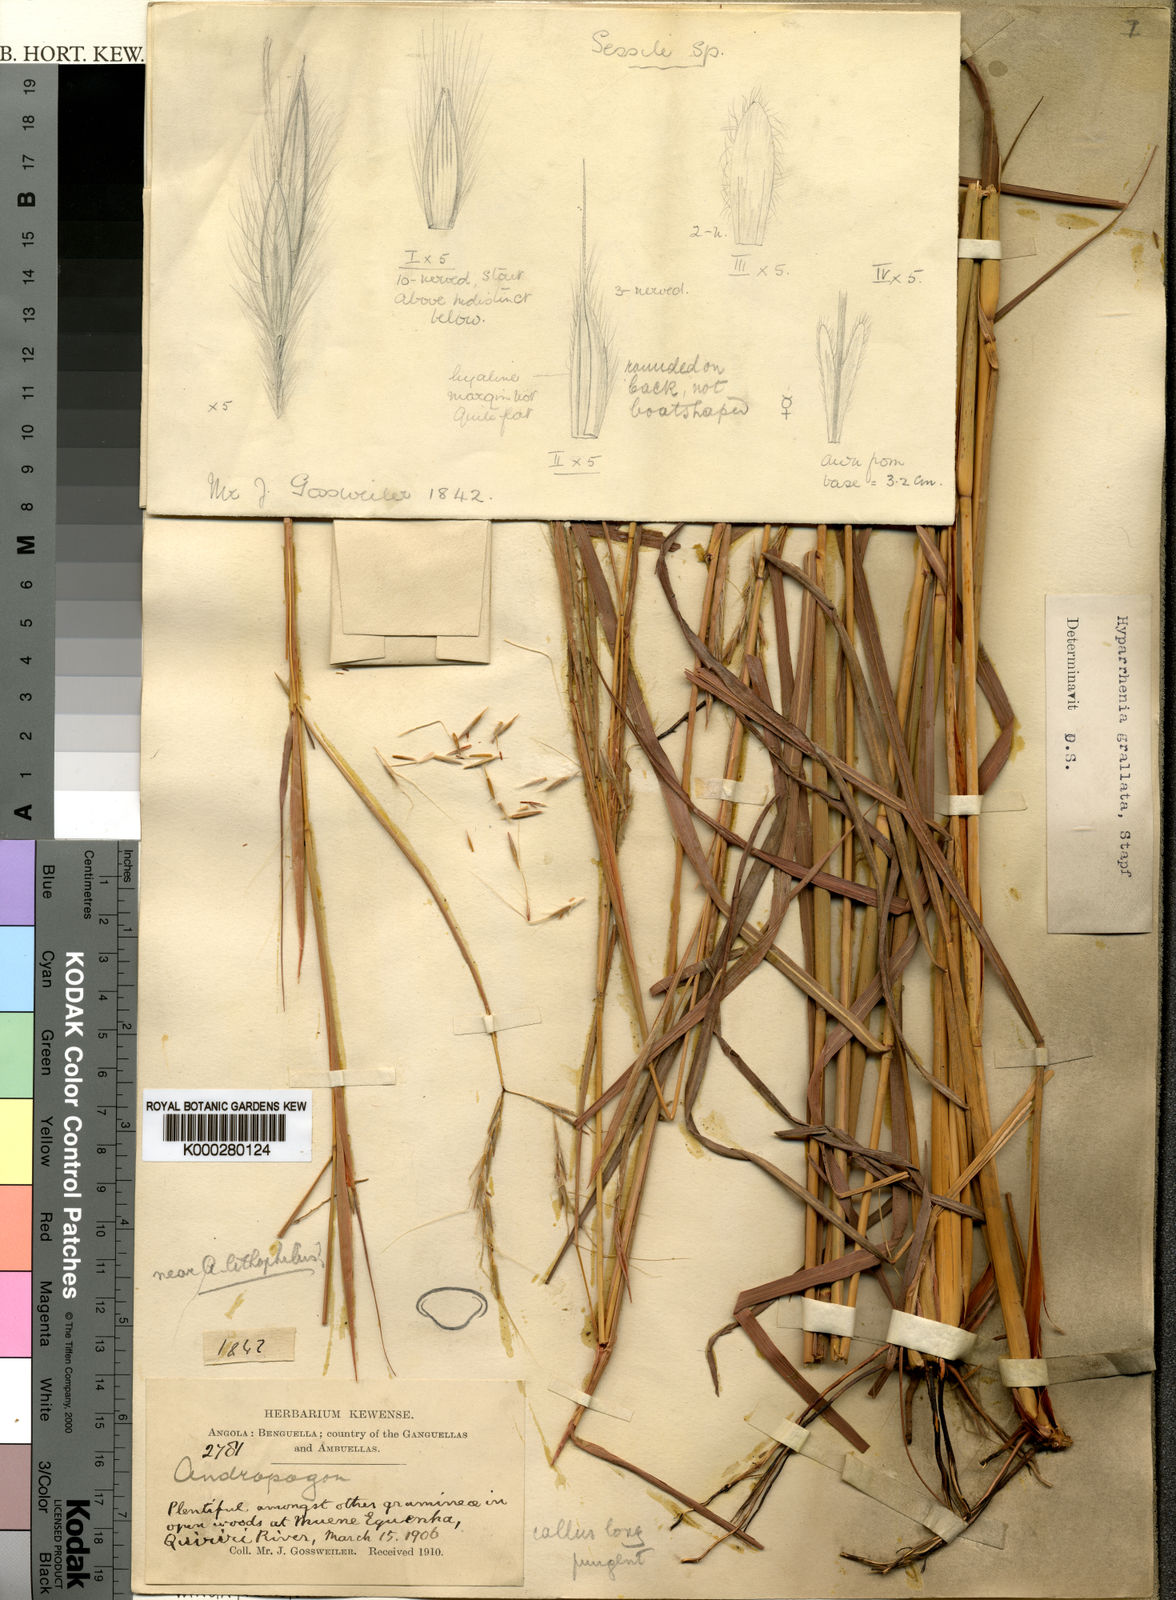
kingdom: Plantae
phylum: Tracheophyta
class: Liliopsida
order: Poales
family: Poaceae
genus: Elymandra
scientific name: Elymandra grallata
